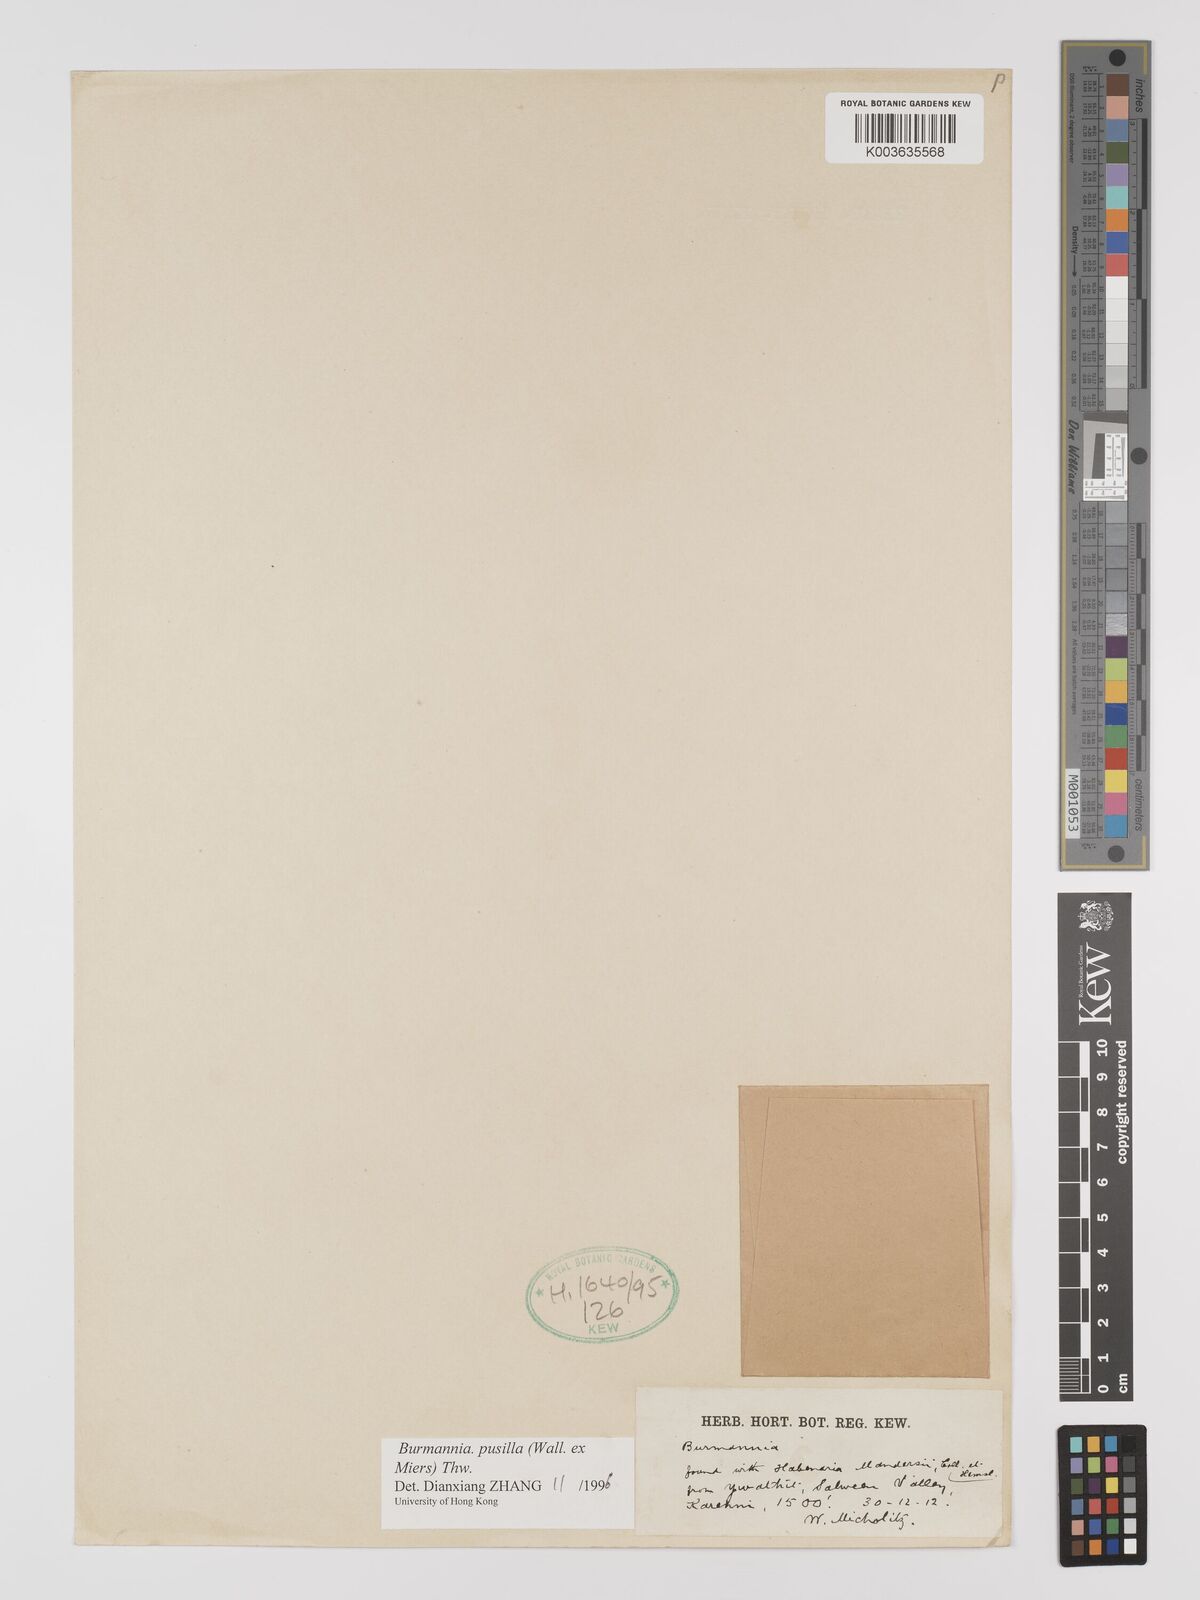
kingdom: Plantae
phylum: Tracheophyta
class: Liliopsida
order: Dioscoreales
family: Burmanniaceae
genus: Burmannia
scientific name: Burmannia pusilla
